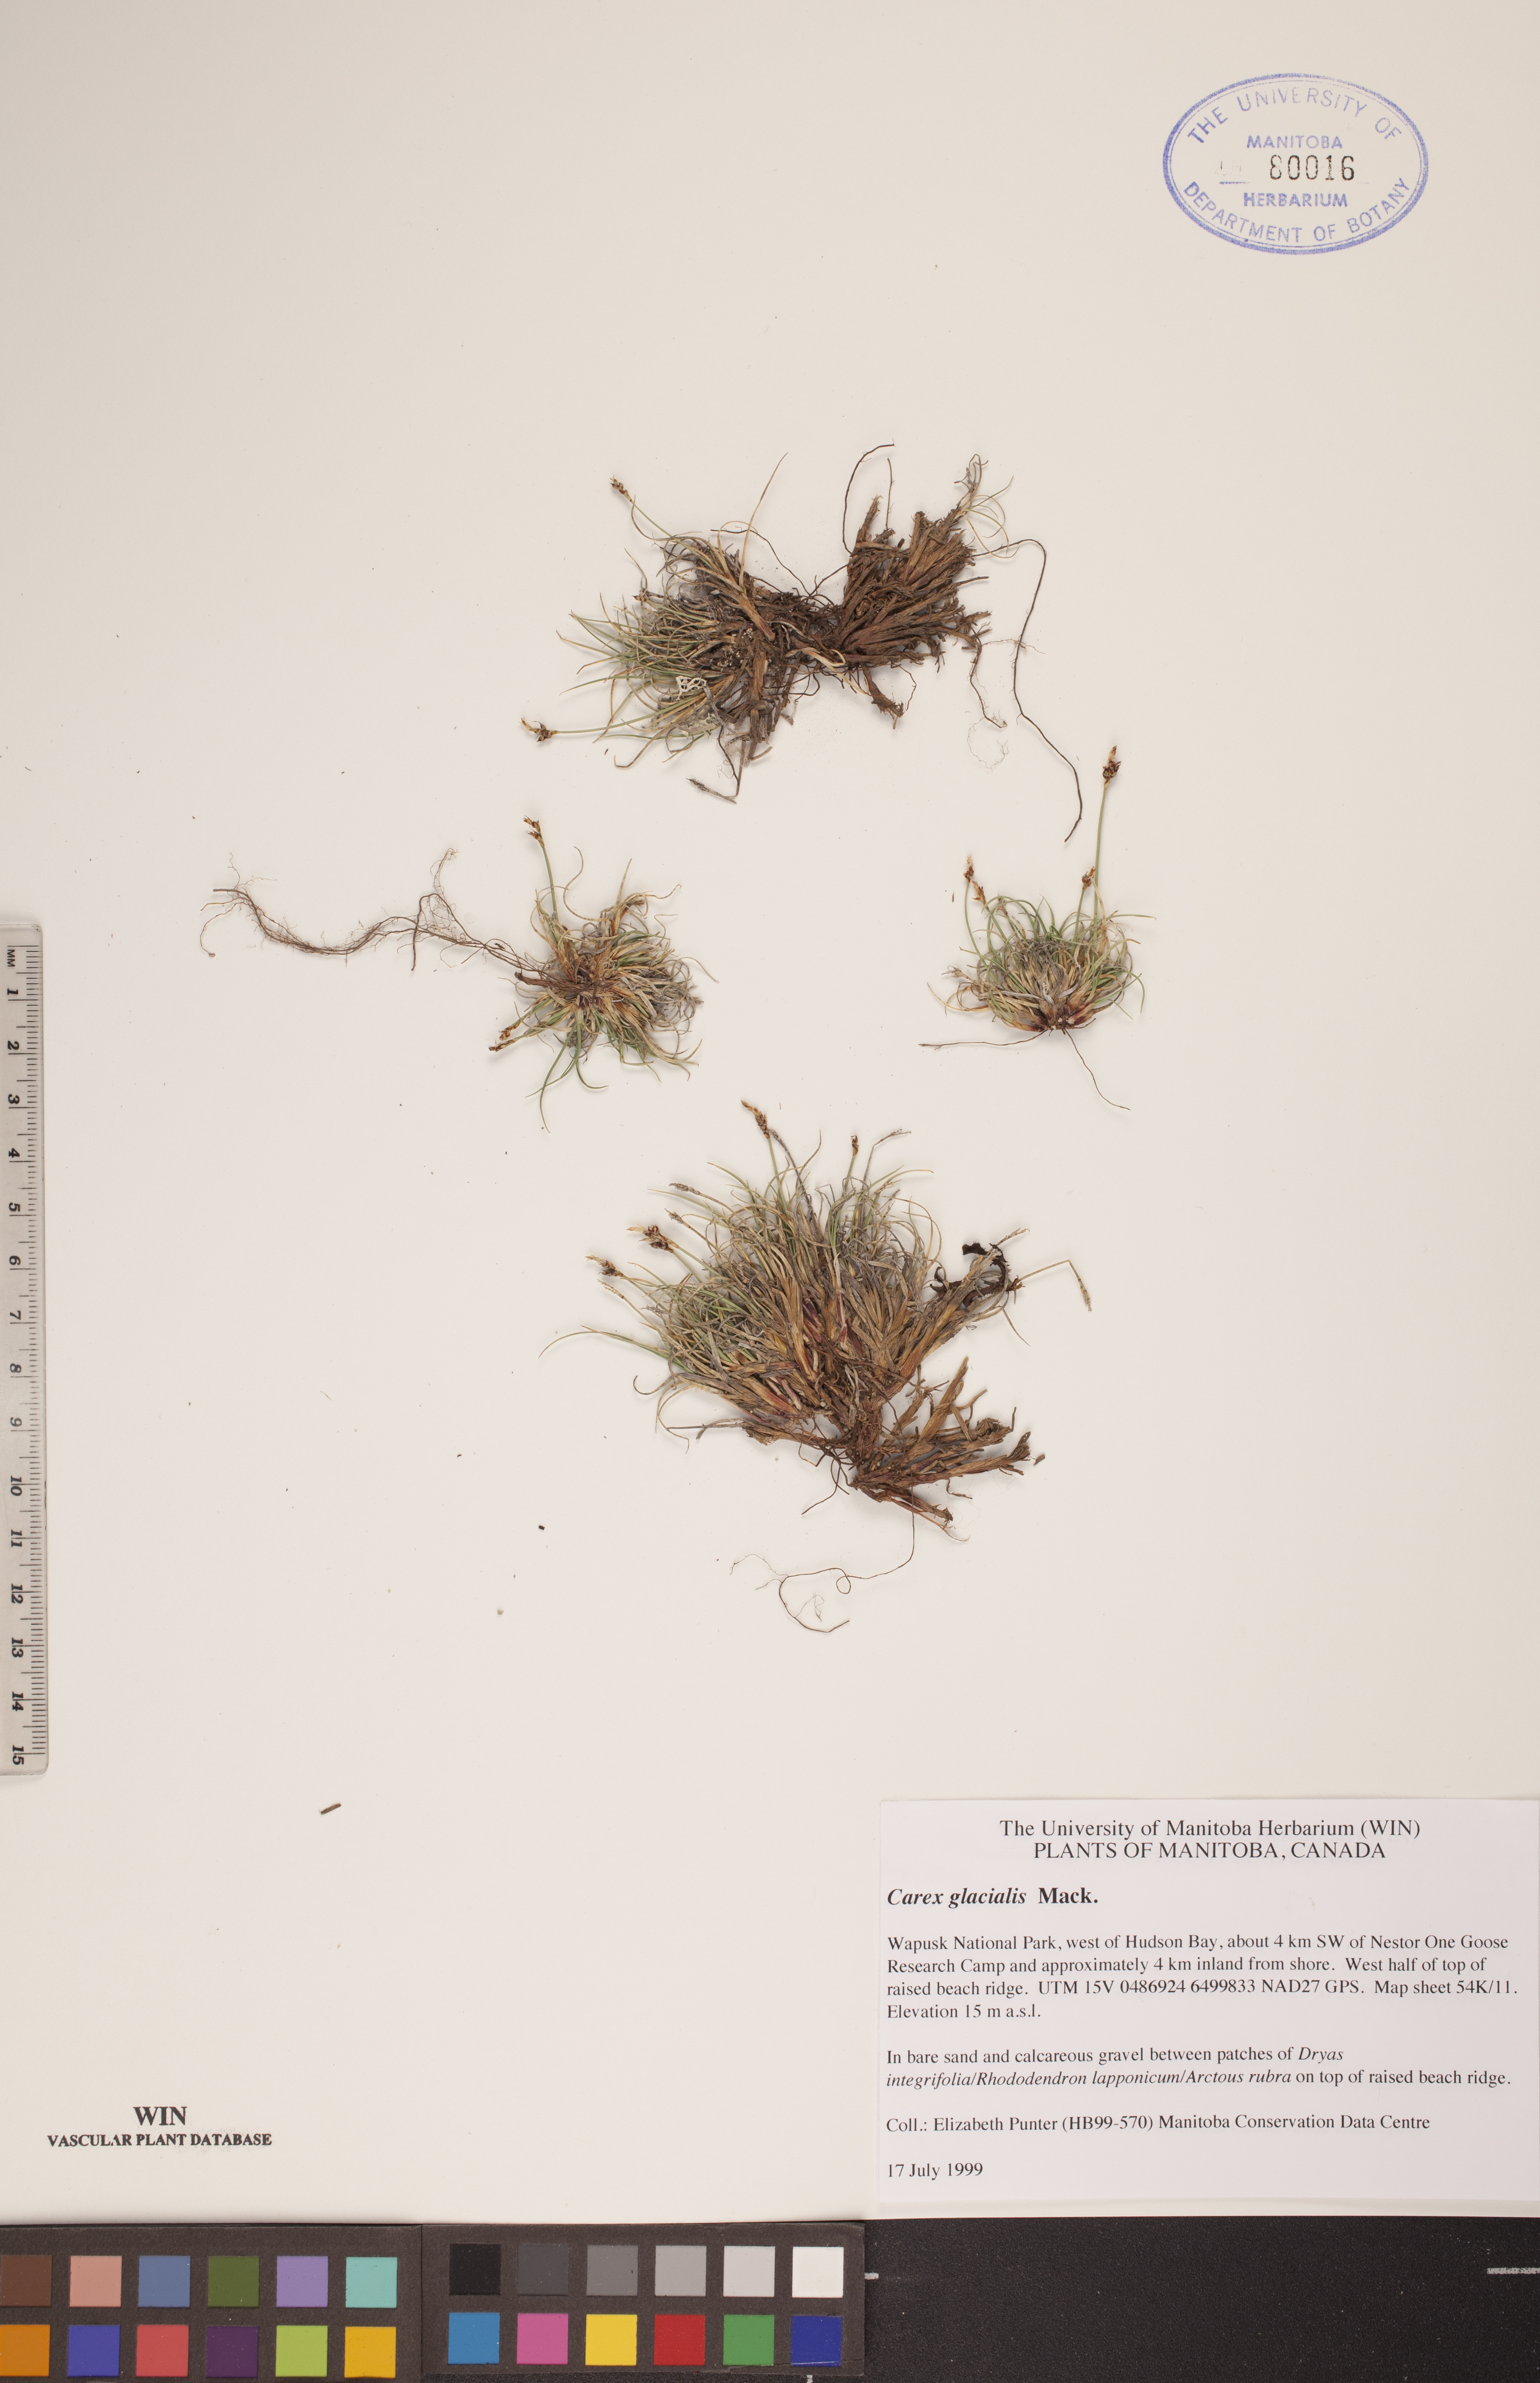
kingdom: Plantae
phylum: Tracheophyta
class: Liliopsida
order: Poales
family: Cyperaceae
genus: Carex
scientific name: Carex glacialis
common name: Newfoundland sedge
